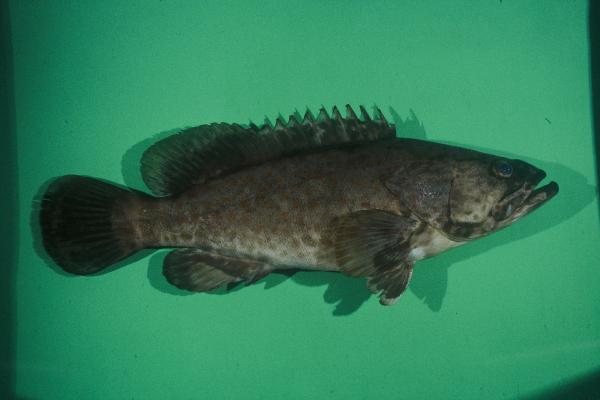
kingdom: Animalia
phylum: Chordata
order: Perciformes
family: Serranidae
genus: Epinephelus
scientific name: Epinephelus malabaricus
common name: Malabar grouper
